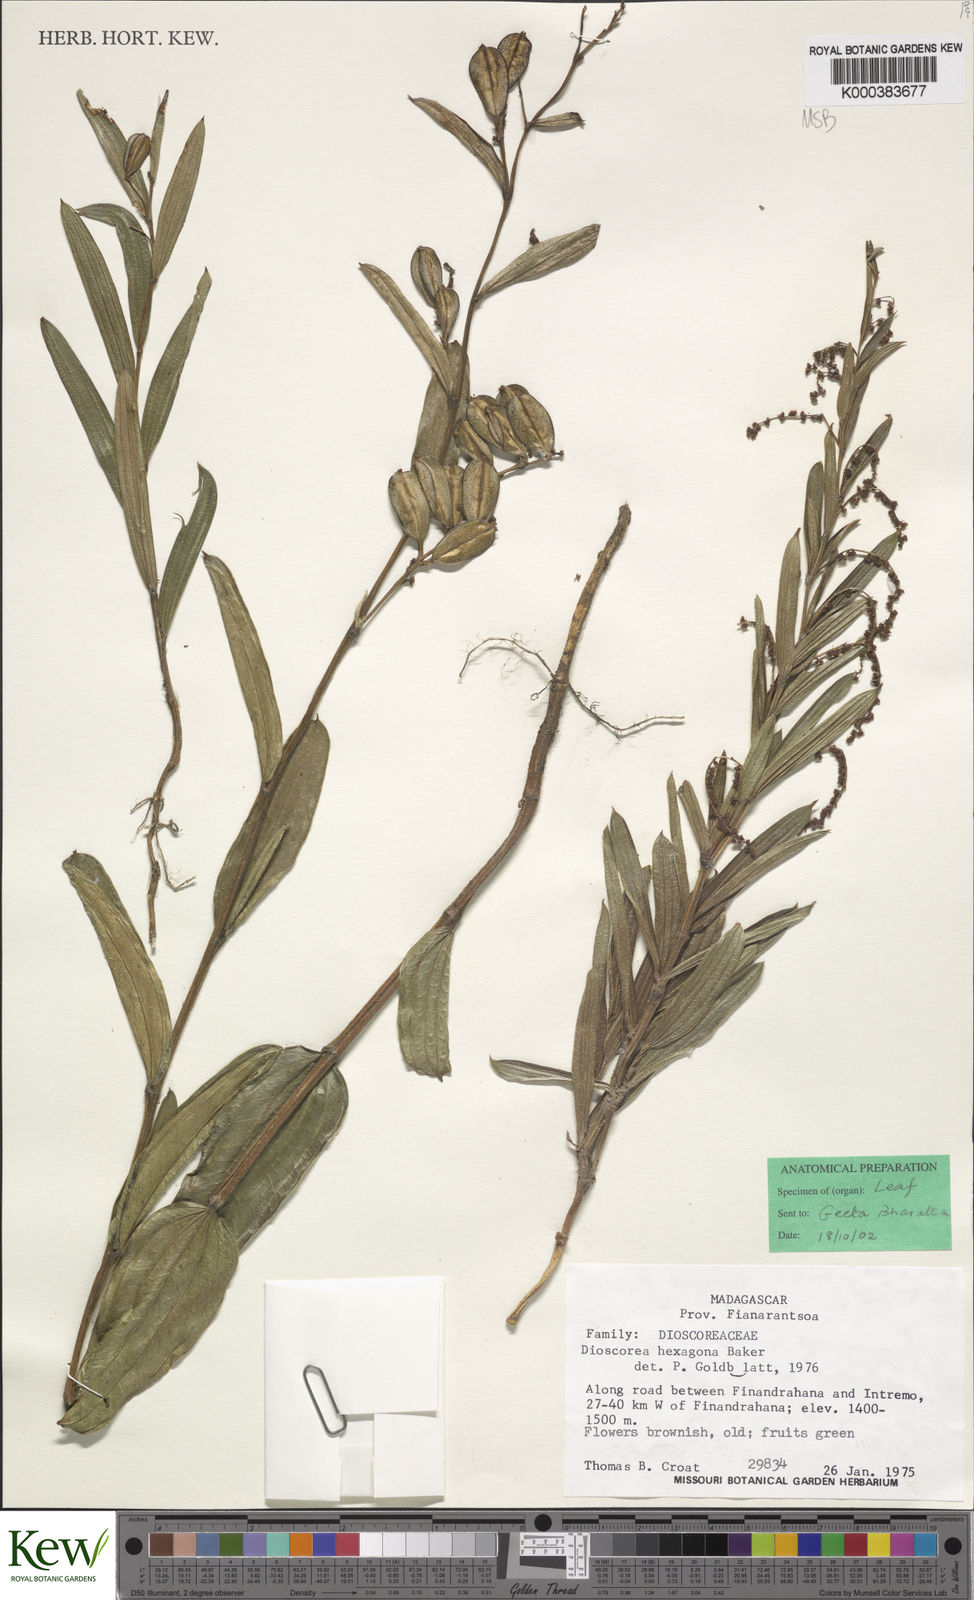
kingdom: Plantae
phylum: Tracheophyta
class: Liliopsida
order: Dioscoreales
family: Dioscoreaceae
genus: Dioscorea
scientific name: Dioscorea hexagona
